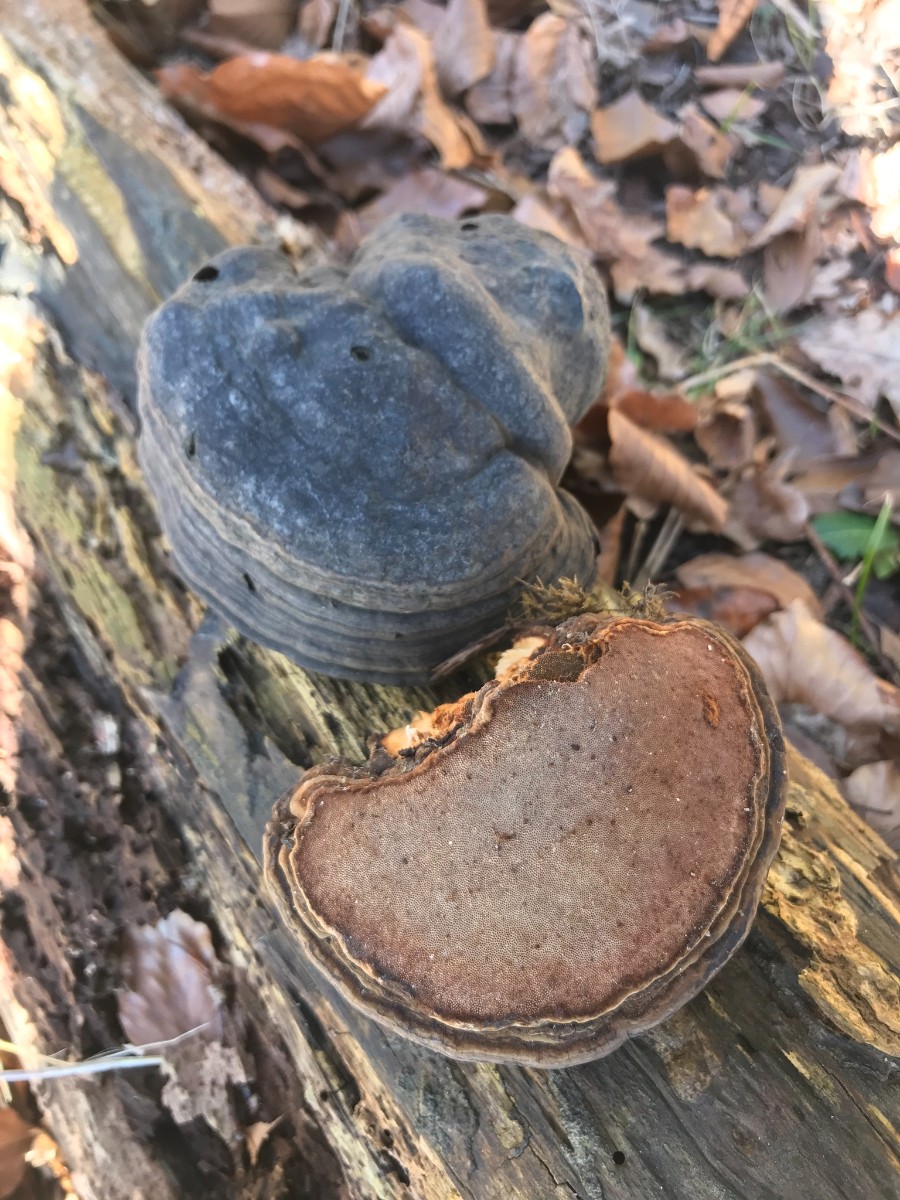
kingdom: Fungi
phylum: Basidiomycota
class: Agaricomycetes
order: Polyporales
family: Polyporaceae
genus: Fomes
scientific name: Fomes fomentarius
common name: tøndersvamp
